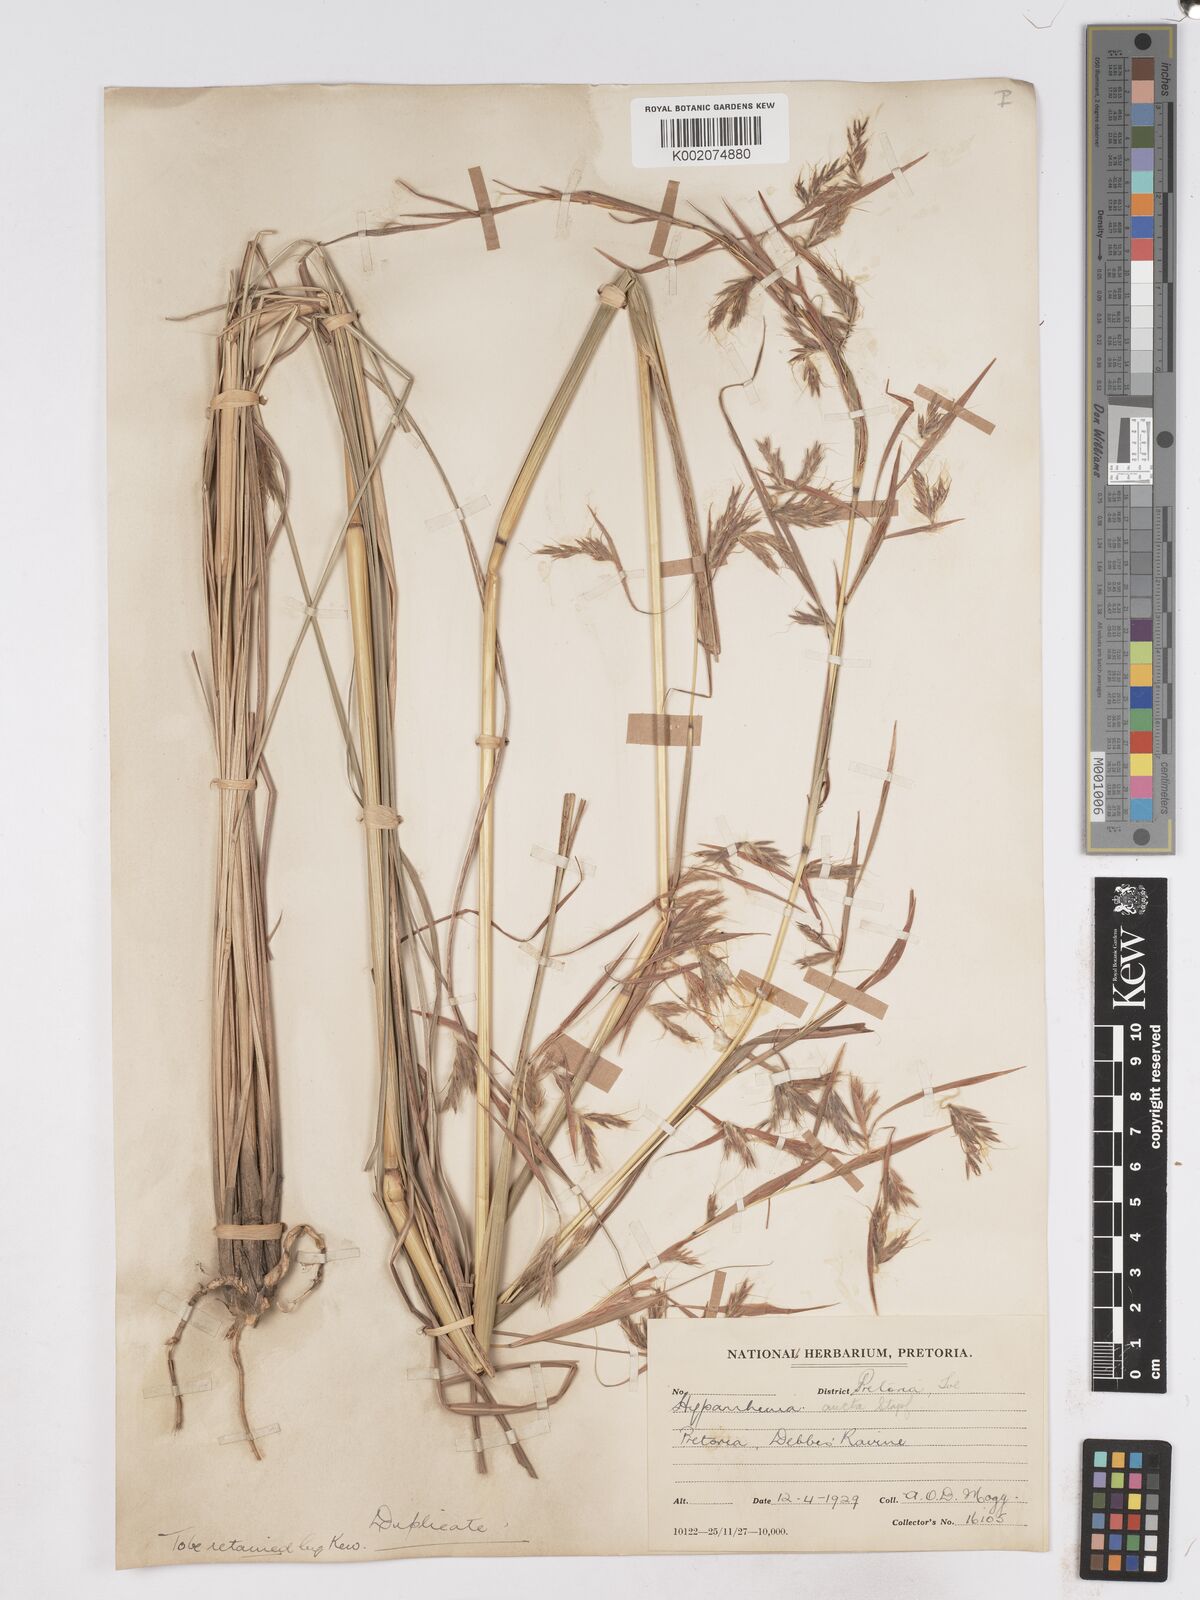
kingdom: Plantae
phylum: Tracheophyta
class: Liliopsida
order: Poales
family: Poaceae
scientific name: Poaceae
